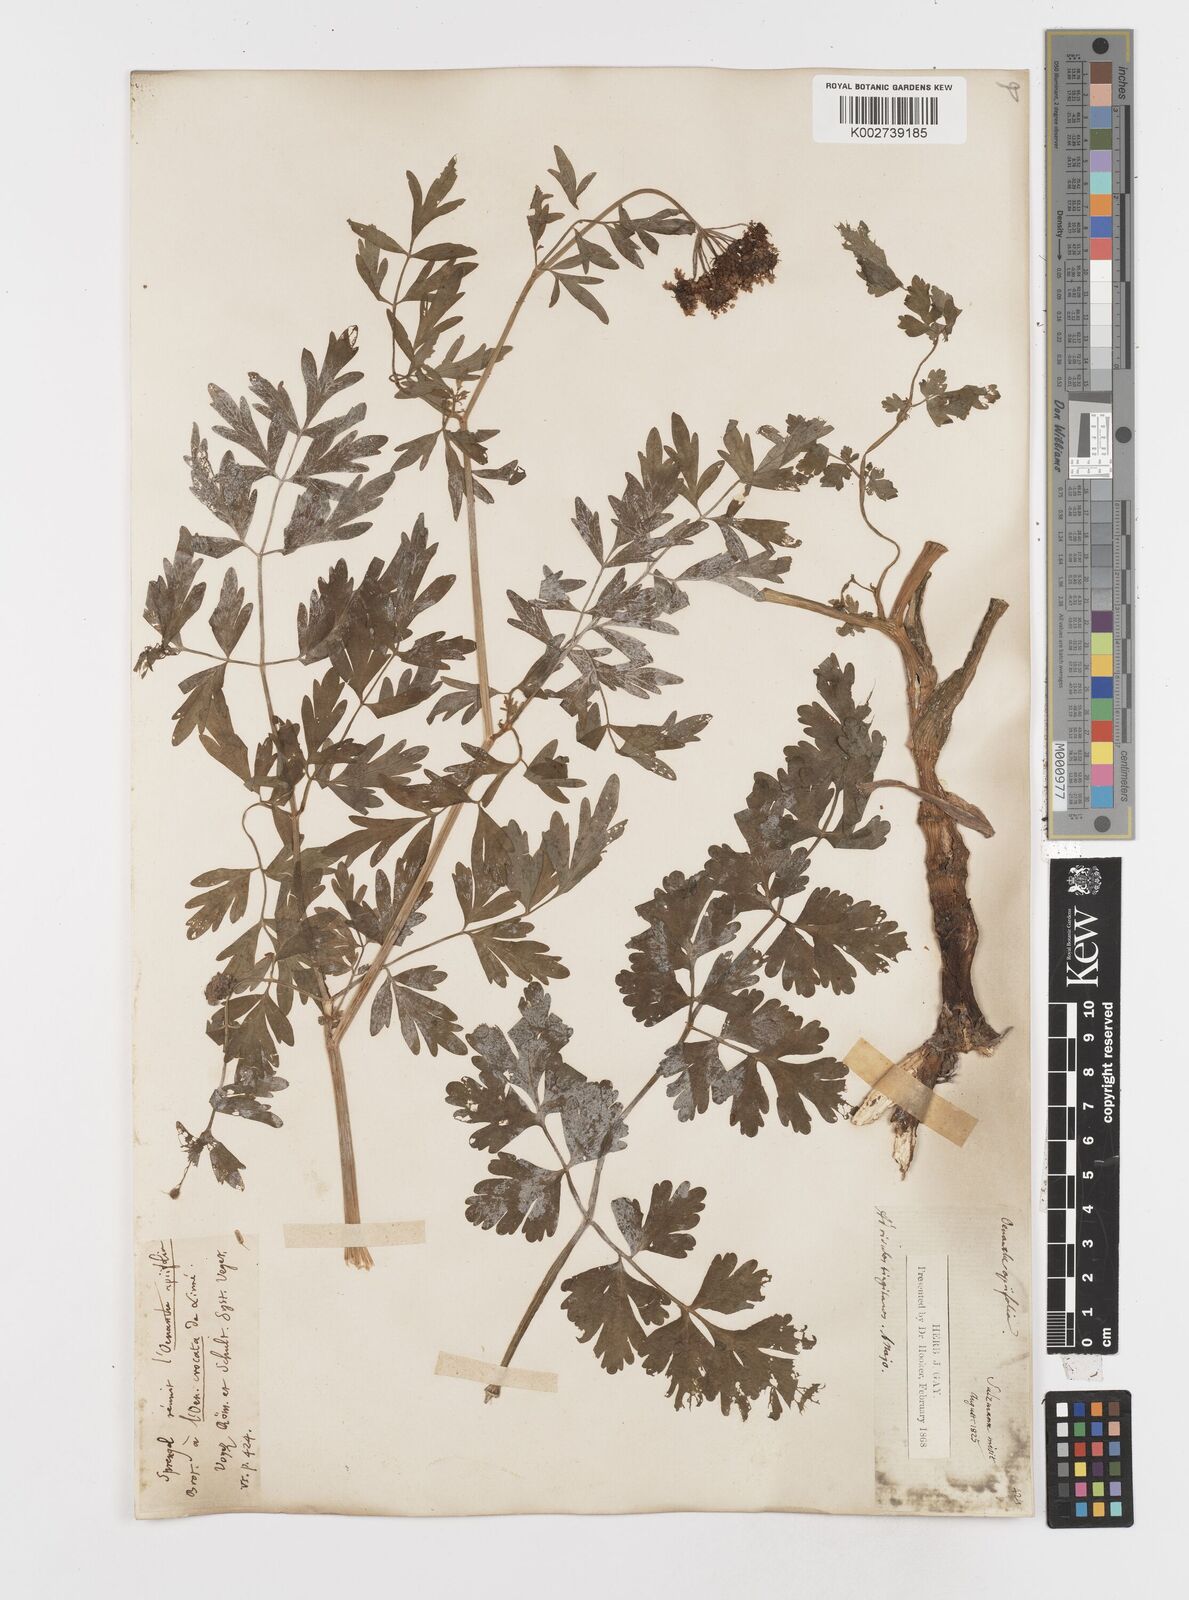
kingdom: Plantae
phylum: Tracheophyta
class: Magnoliopsida
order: Apiales
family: Apiaceae
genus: Oenanthe
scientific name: Oenanthe crocata
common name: Hemlock water-dropwort
